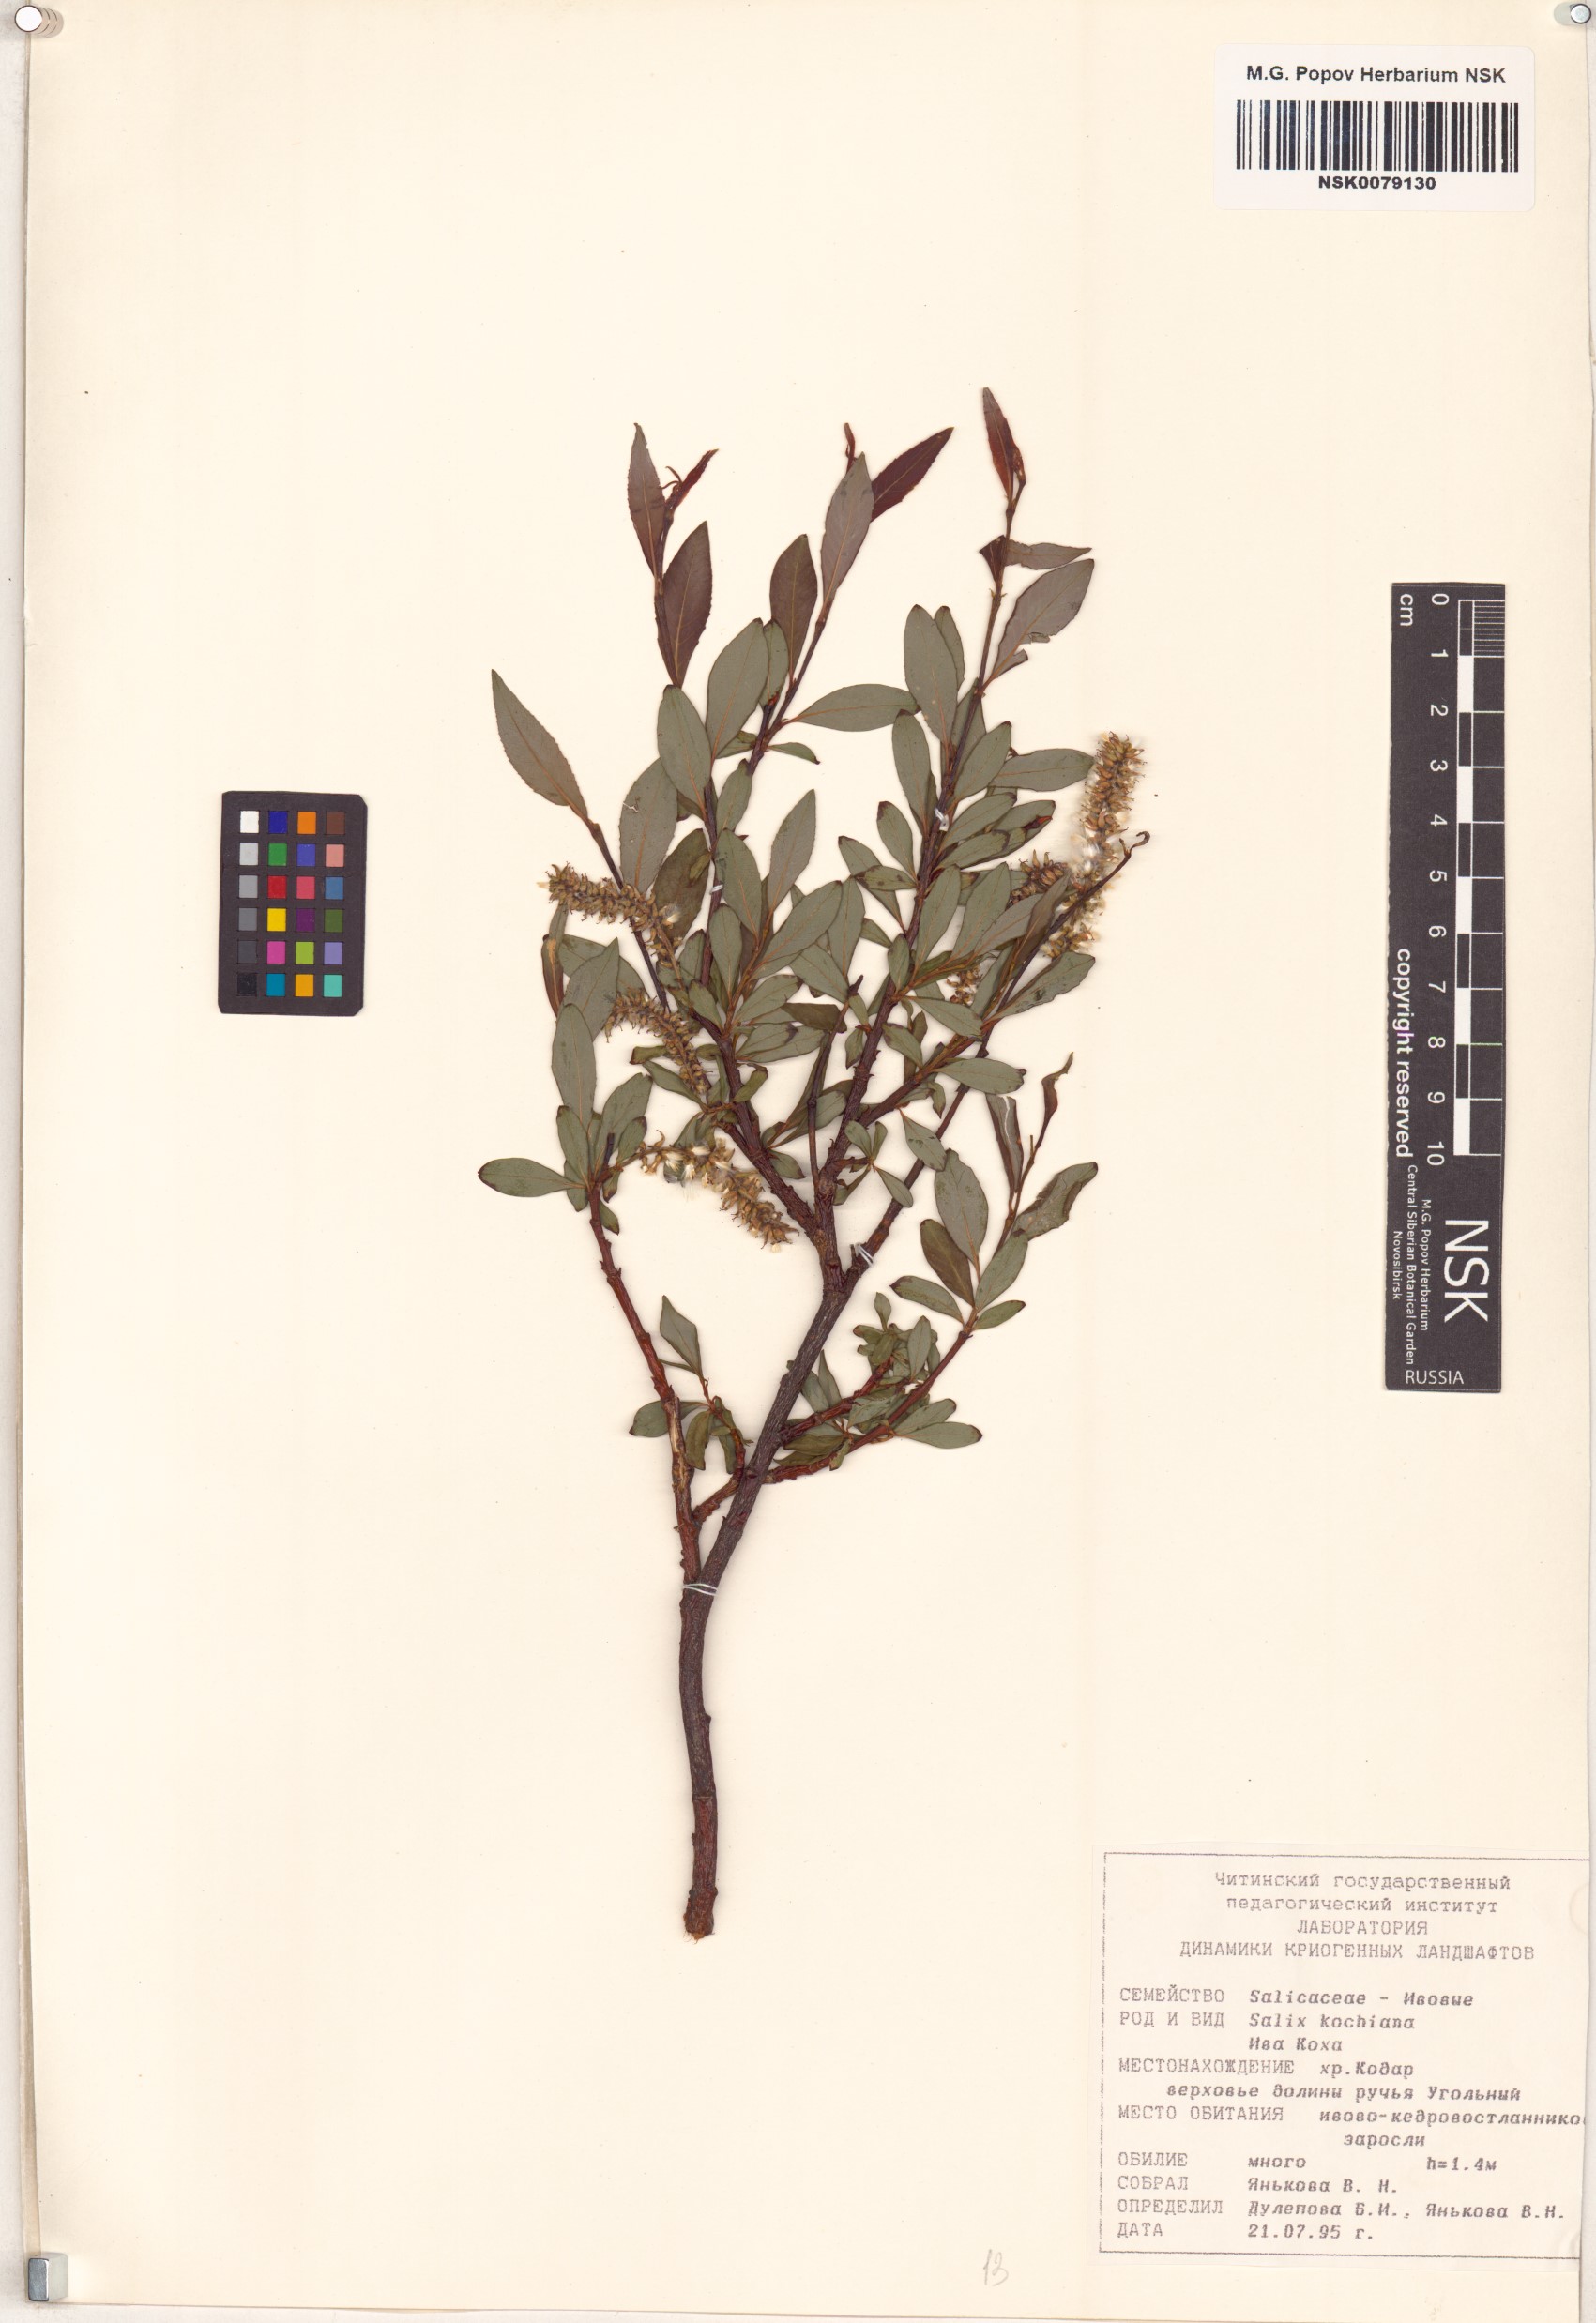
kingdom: Plantae
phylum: Tracheophyta
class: Magnoliopsida
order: Malpighiales
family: Salicaceae
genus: Salix
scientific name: Salix kochiana
